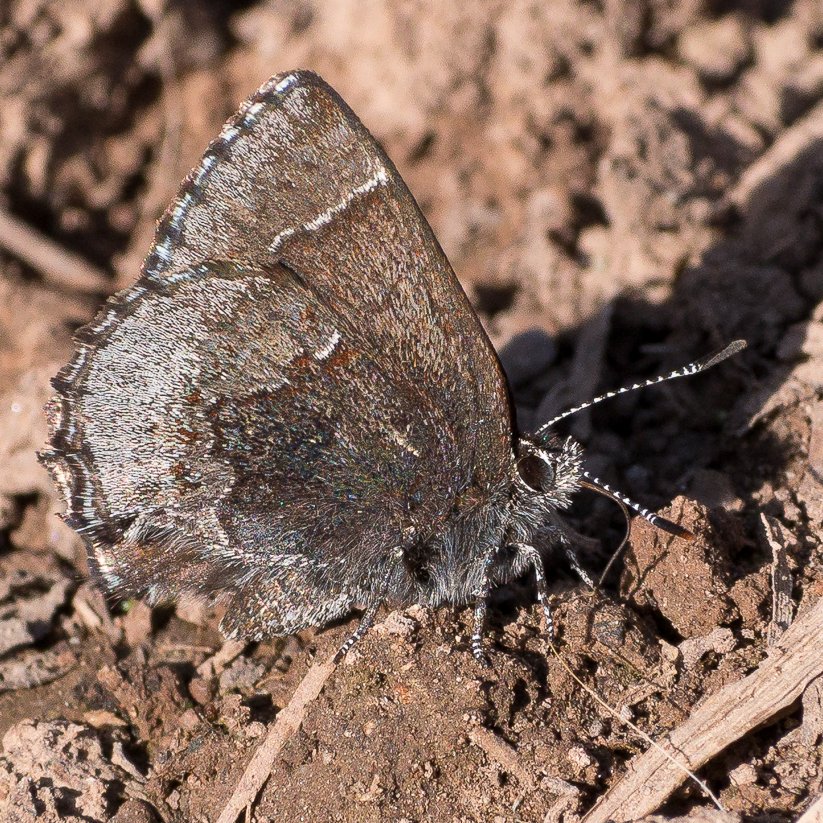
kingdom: Animalia
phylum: Arthropoda
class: Insecta
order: Lepidoptera
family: Lycaenidae
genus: Callophrys
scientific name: Callophrys polios
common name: Hoary Elfin
